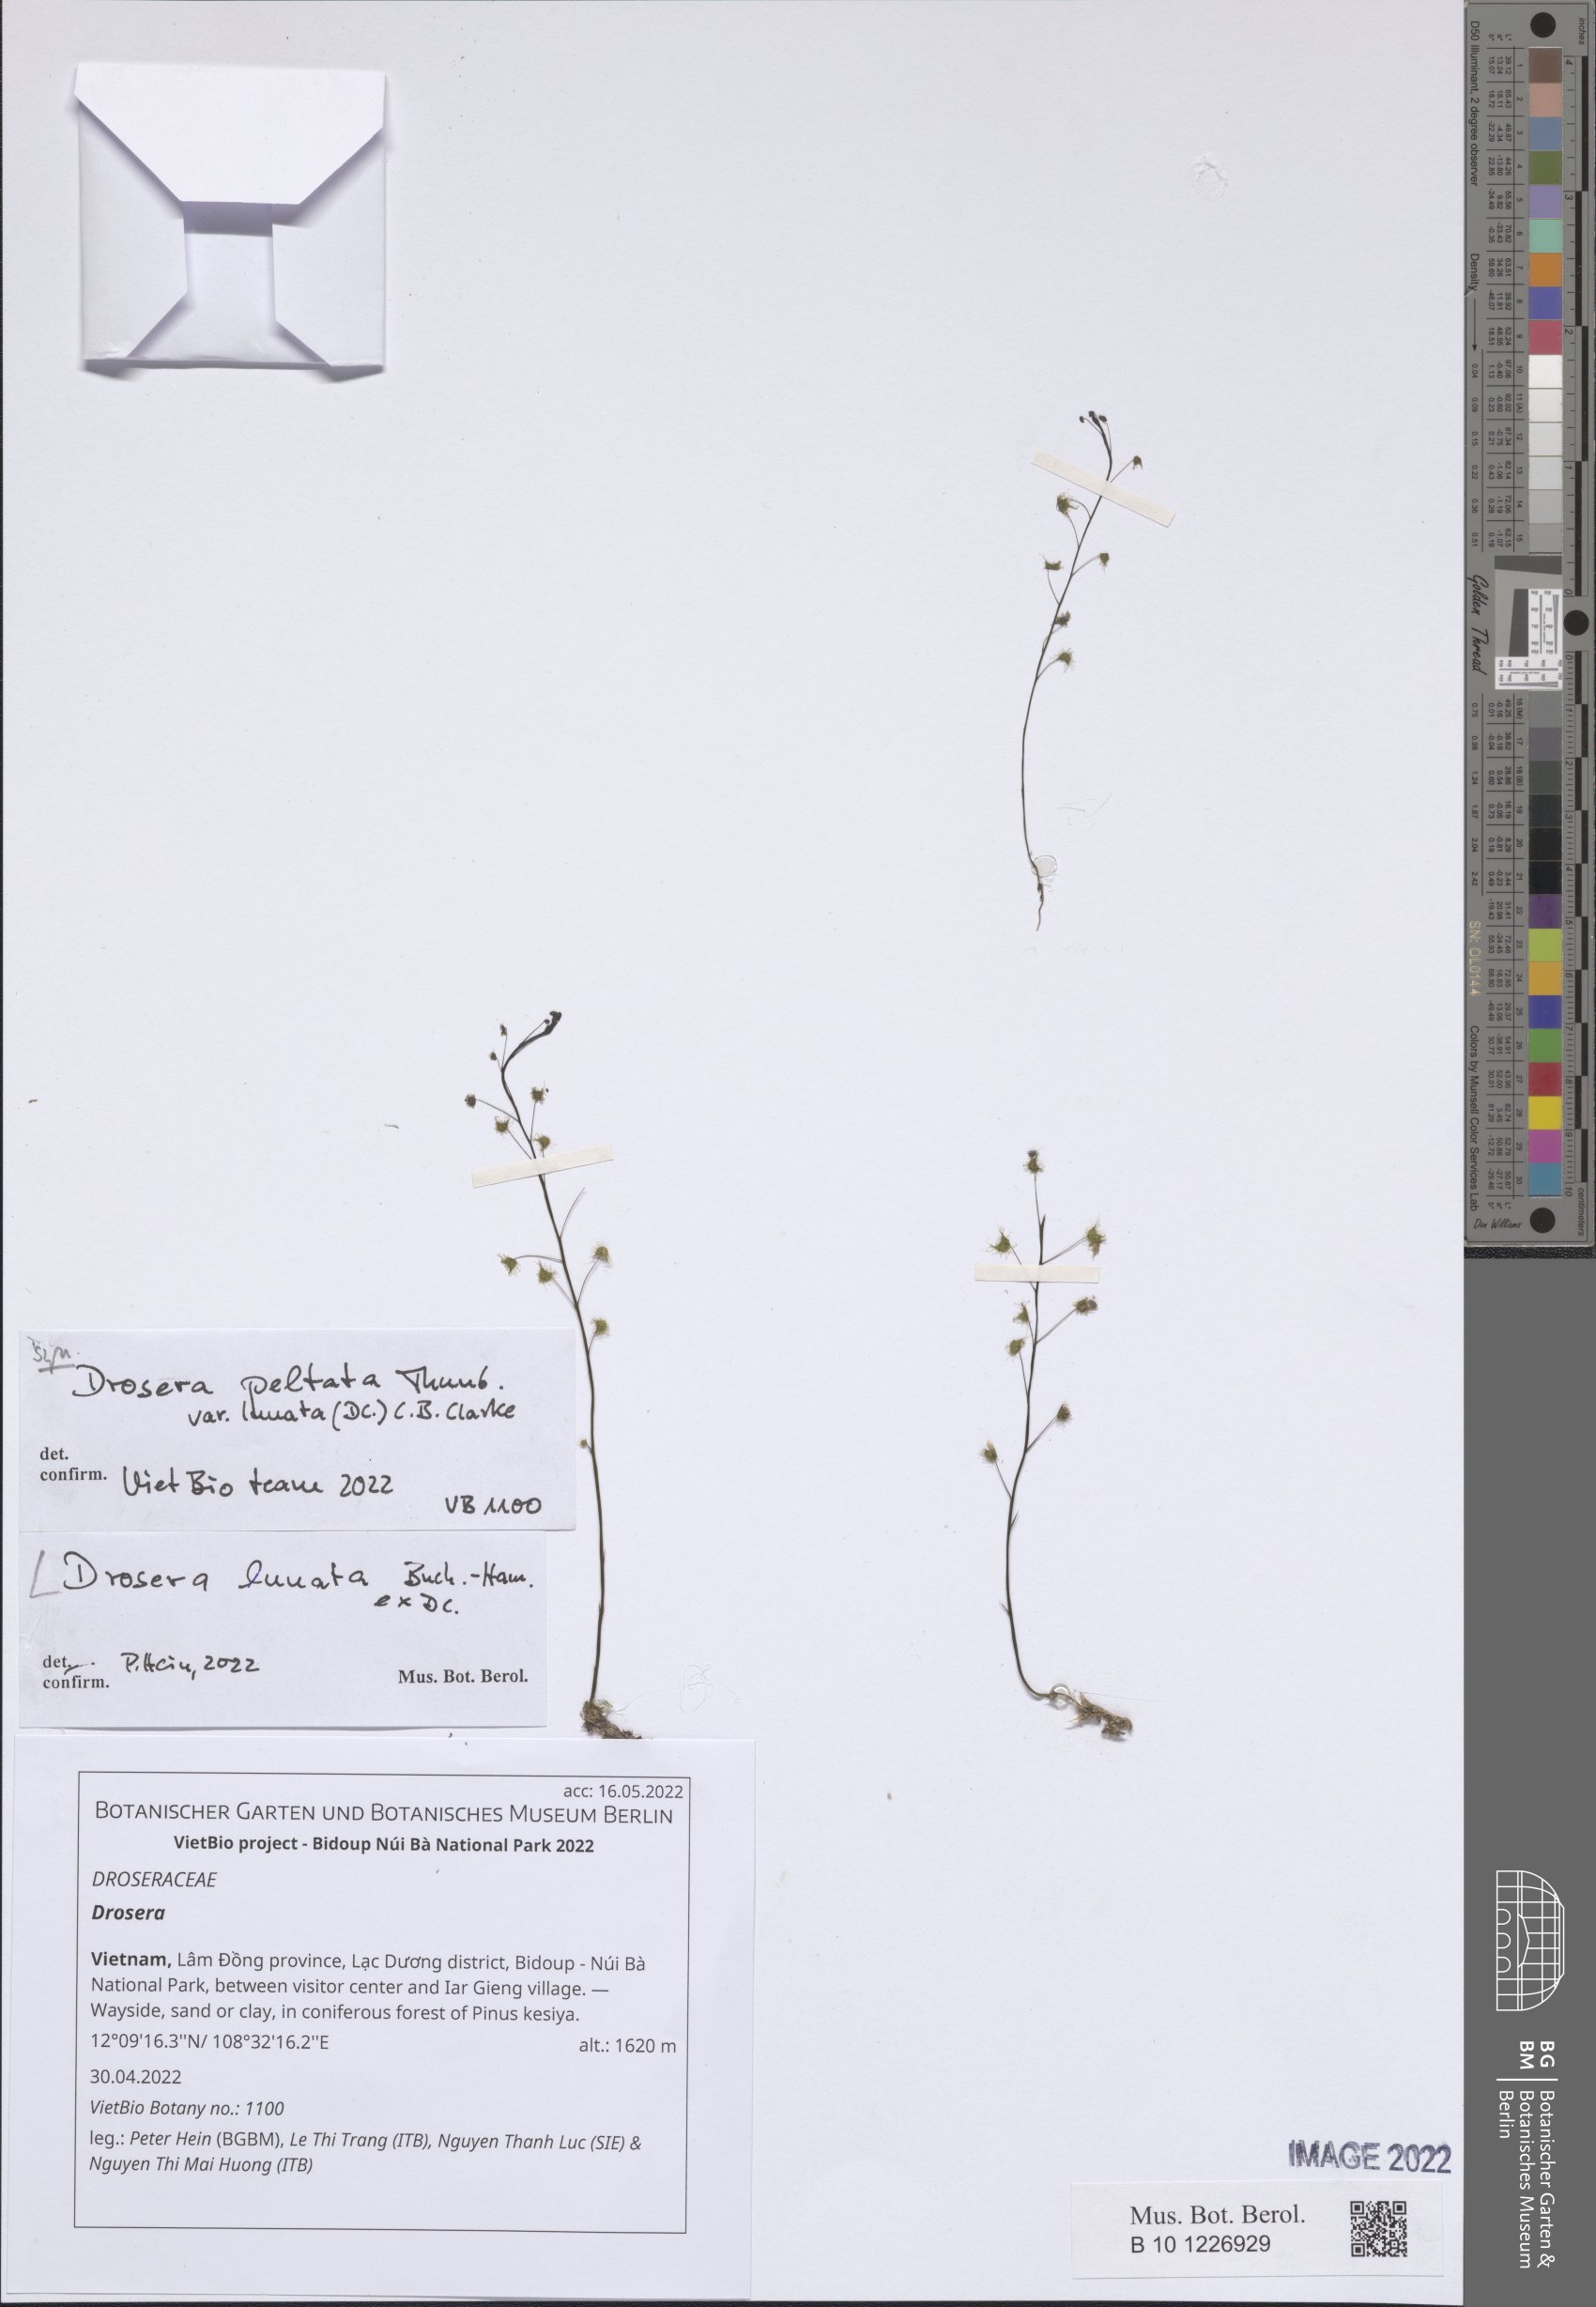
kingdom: Plantae
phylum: Tracheophyta
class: Magnoliopsida
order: Caryophyllales
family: Droseraceae
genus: Drosera
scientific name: Drosera
